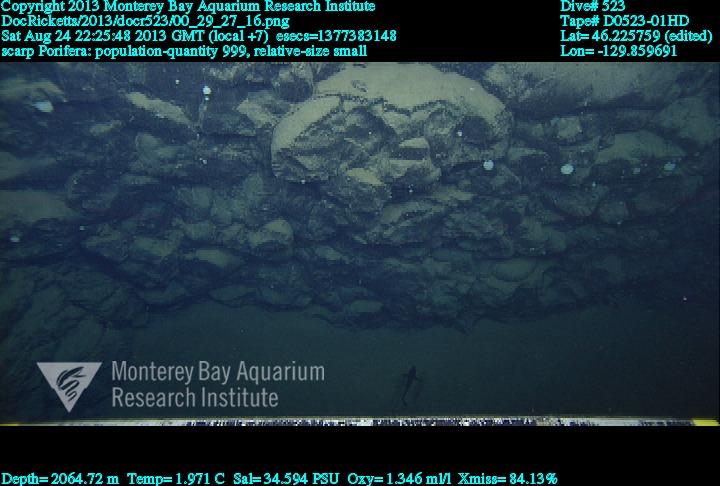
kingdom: Animalia
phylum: Porifera
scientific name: Porifera
